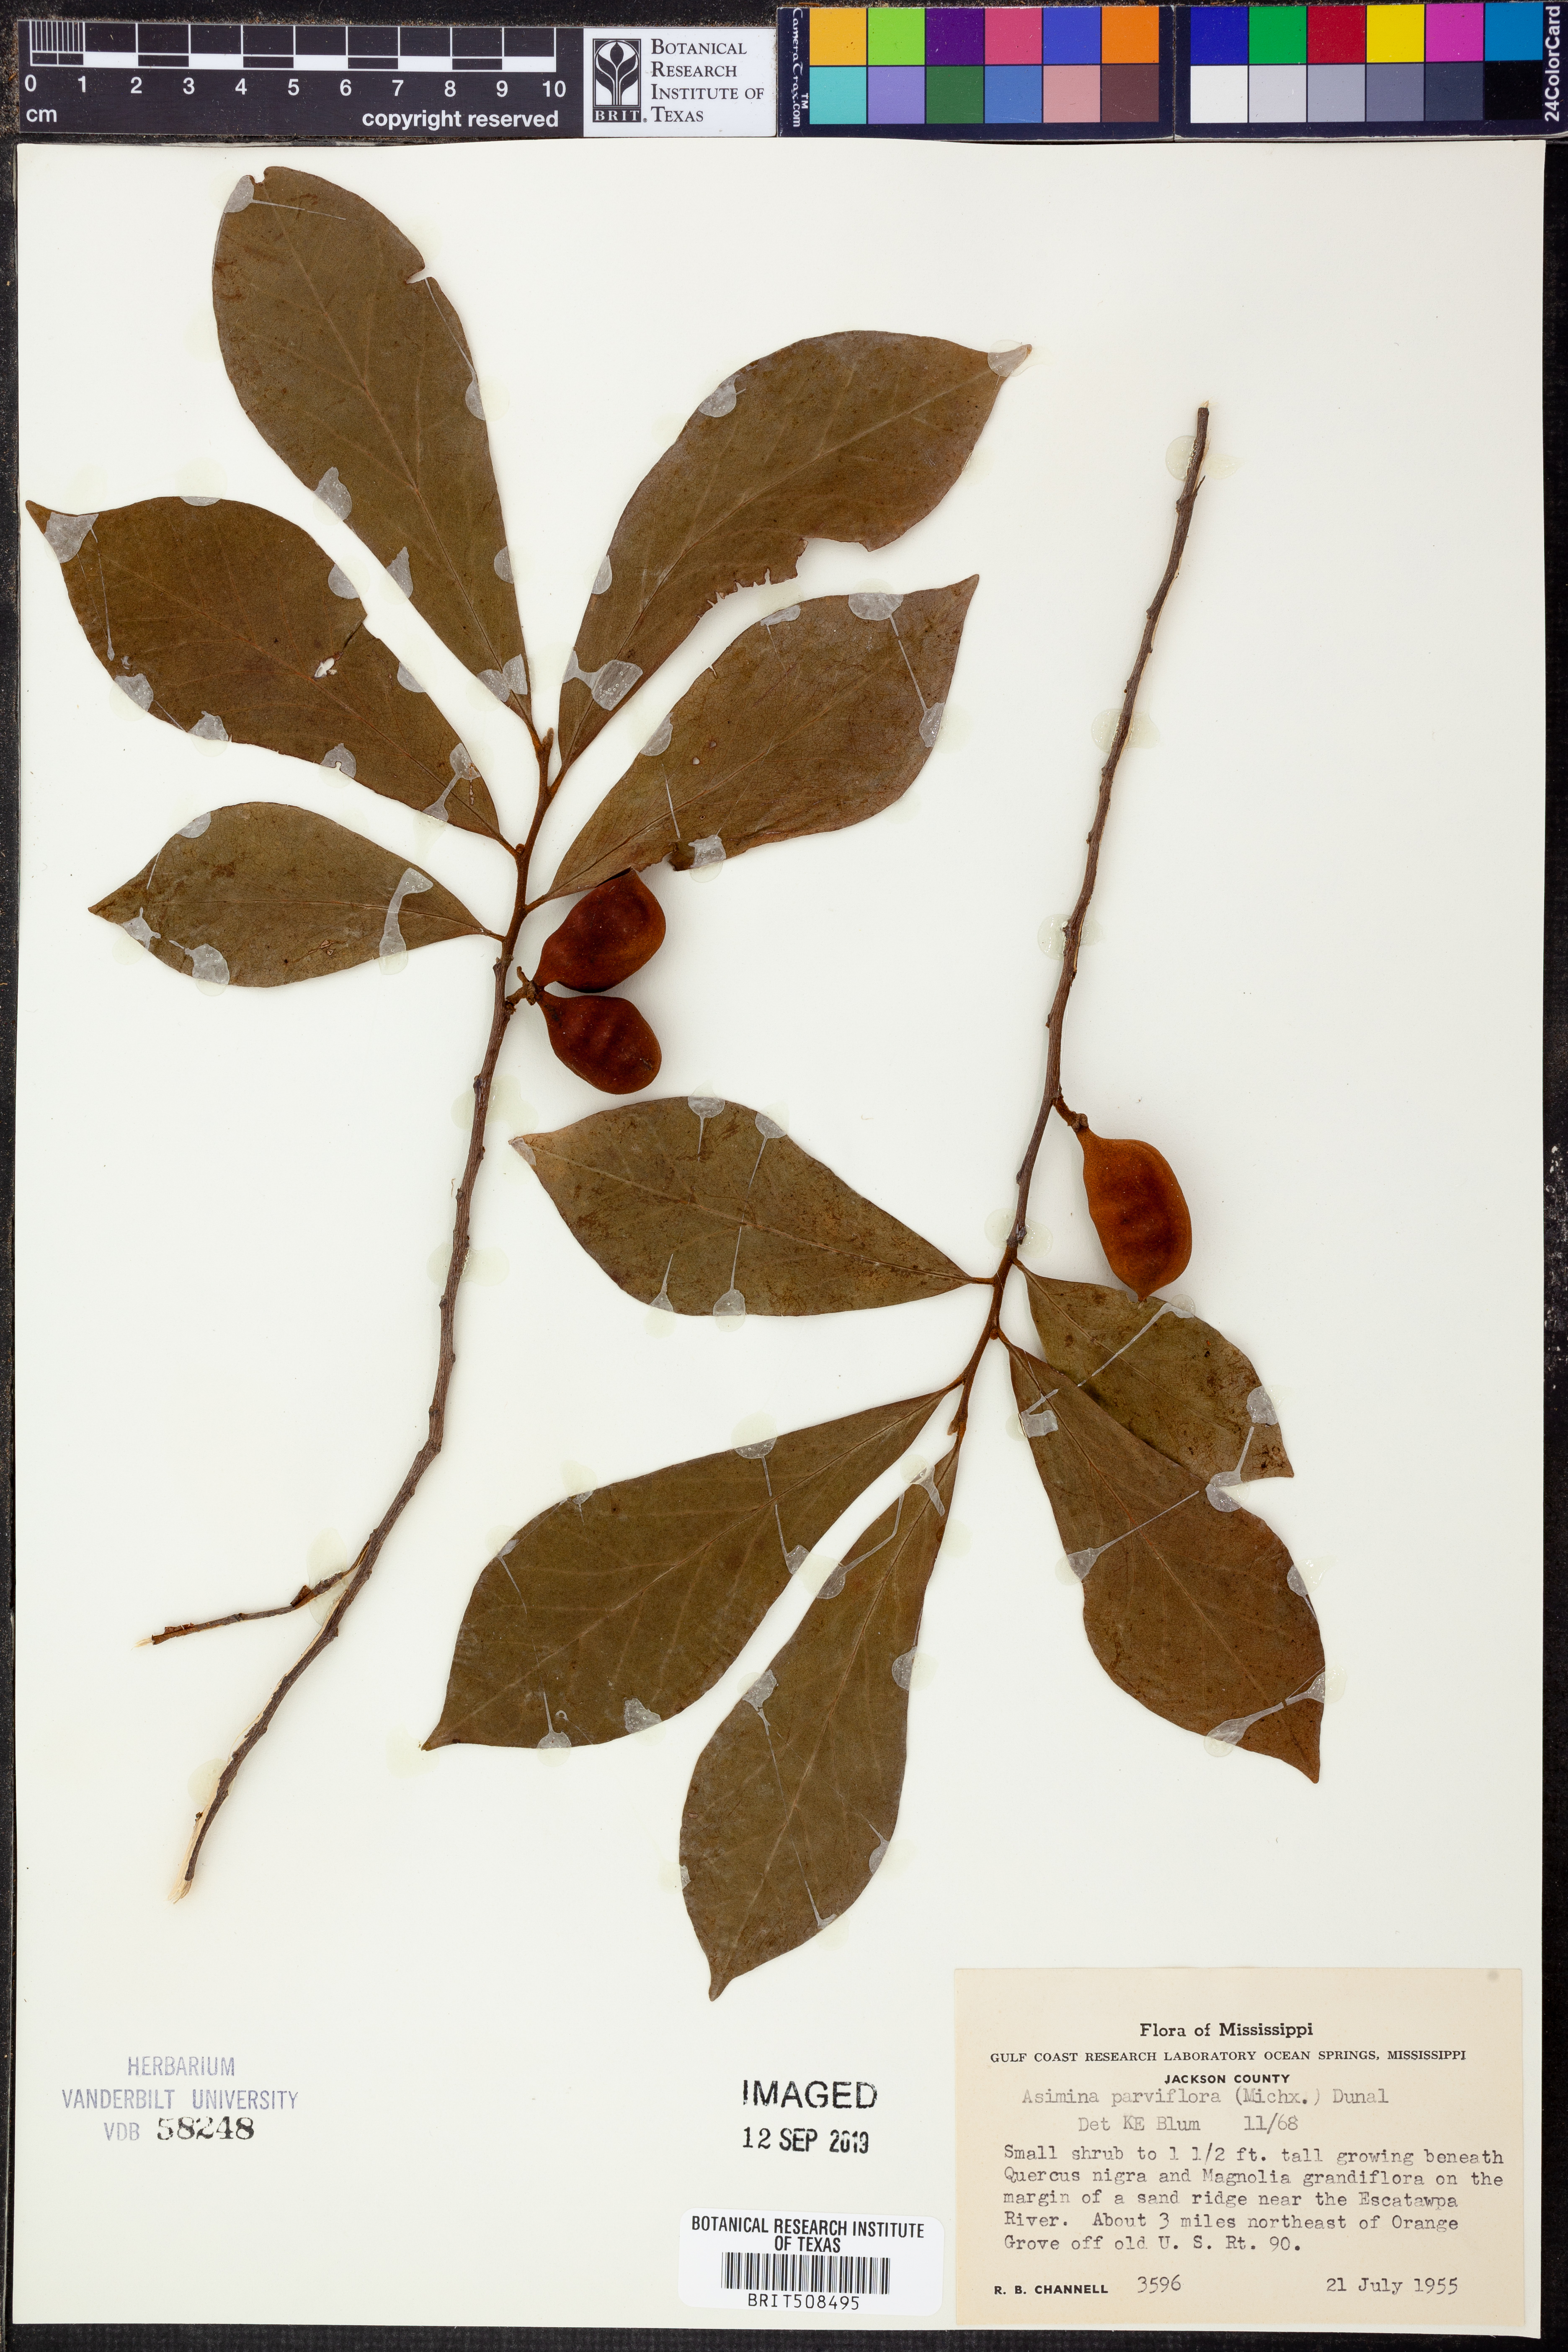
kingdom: Plantae
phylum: Tracheophyta
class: Magnoliopsida
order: Magnoliales
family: Annonaceae
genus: Asimina
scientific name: Asimina parviflora
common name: Dwarf pawpaw
